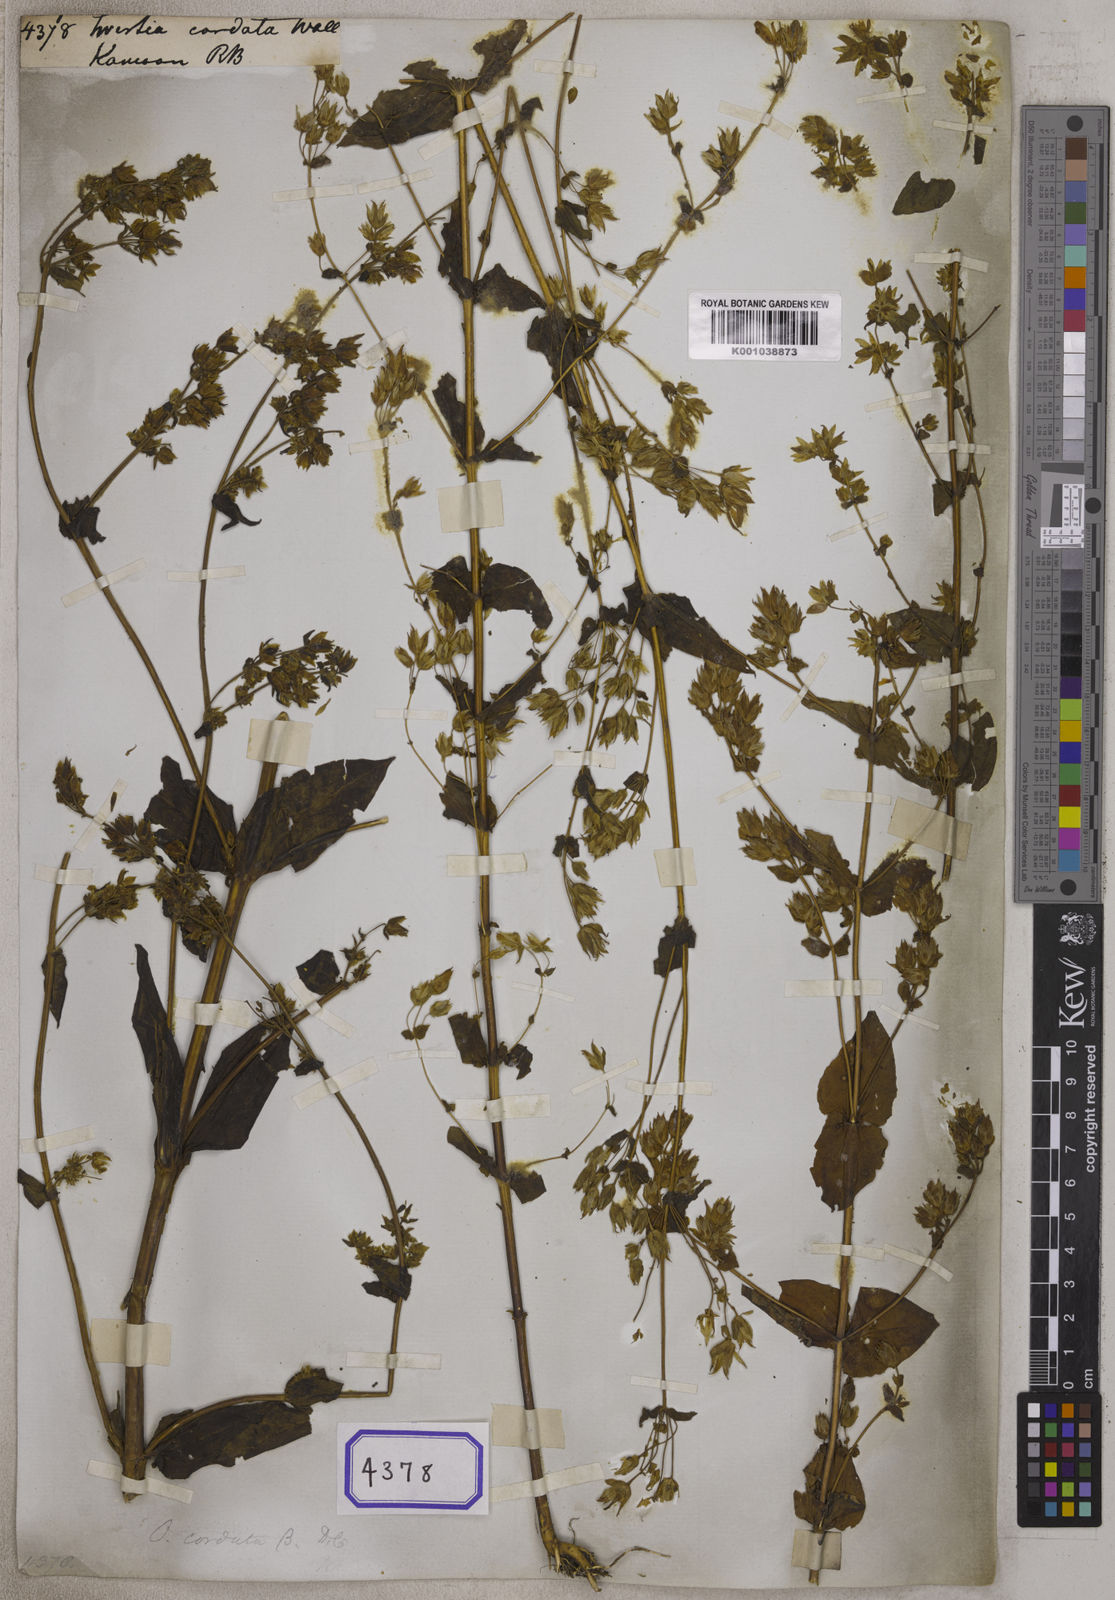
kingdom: Plantae
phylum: Tracheophyta
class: Magnoliopsida
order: Gentianales
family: Gentianaceae
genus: Swertia
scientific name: Swertia
